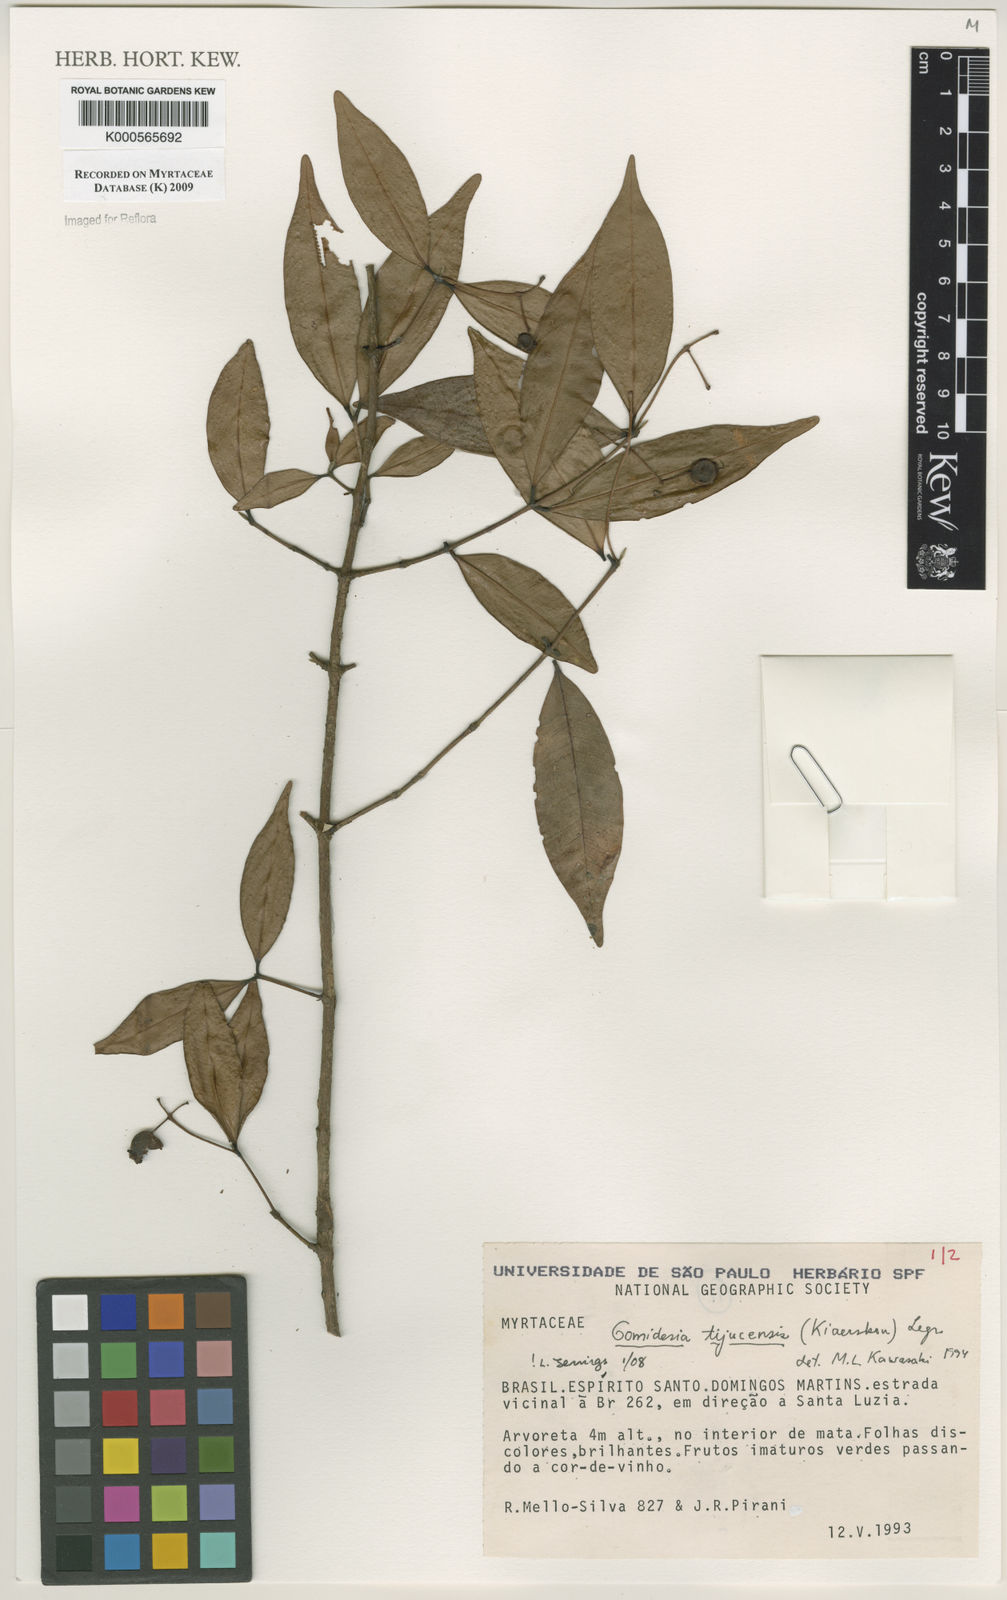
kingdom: Plantae
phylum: Tracheophyta
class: Magnoliopsida
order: Myrtales
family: Myrtaceae
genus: Myrcia
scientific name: Myrcia tijucensis
